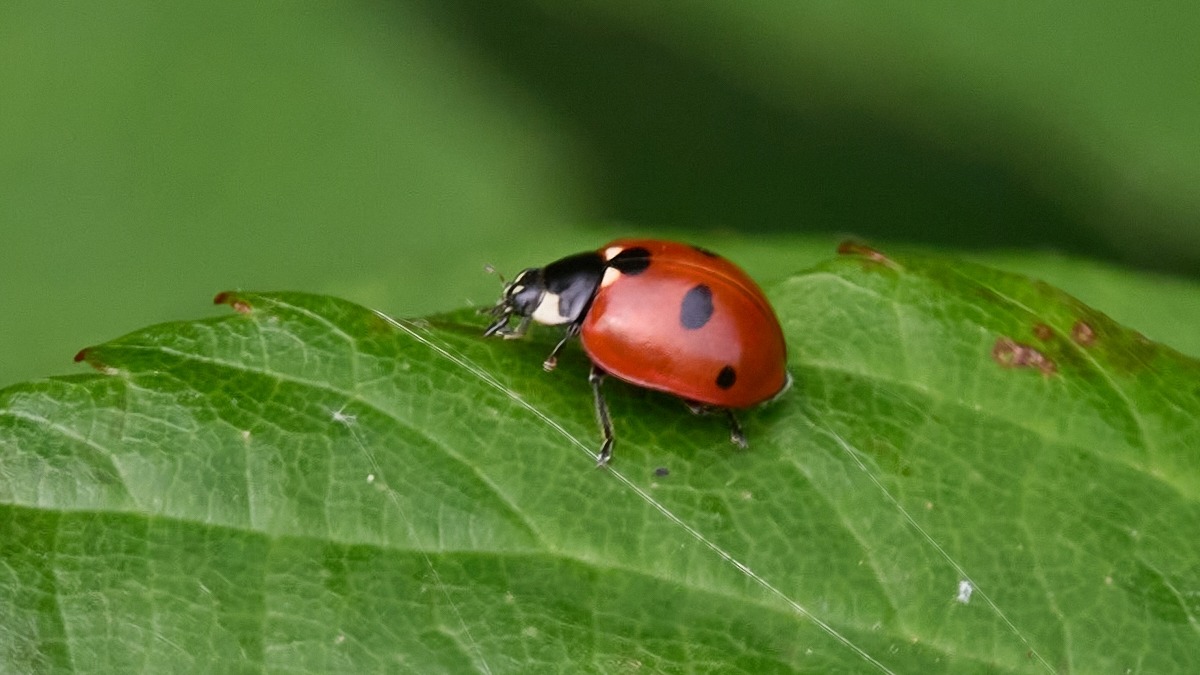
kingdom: Animalia
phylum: Arthropoda
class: Insecta
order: Coleoptera
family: Coccinellidae
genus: Coccinella
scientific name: Coccinella quinquepunctata
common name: Femplettet mariehøne
